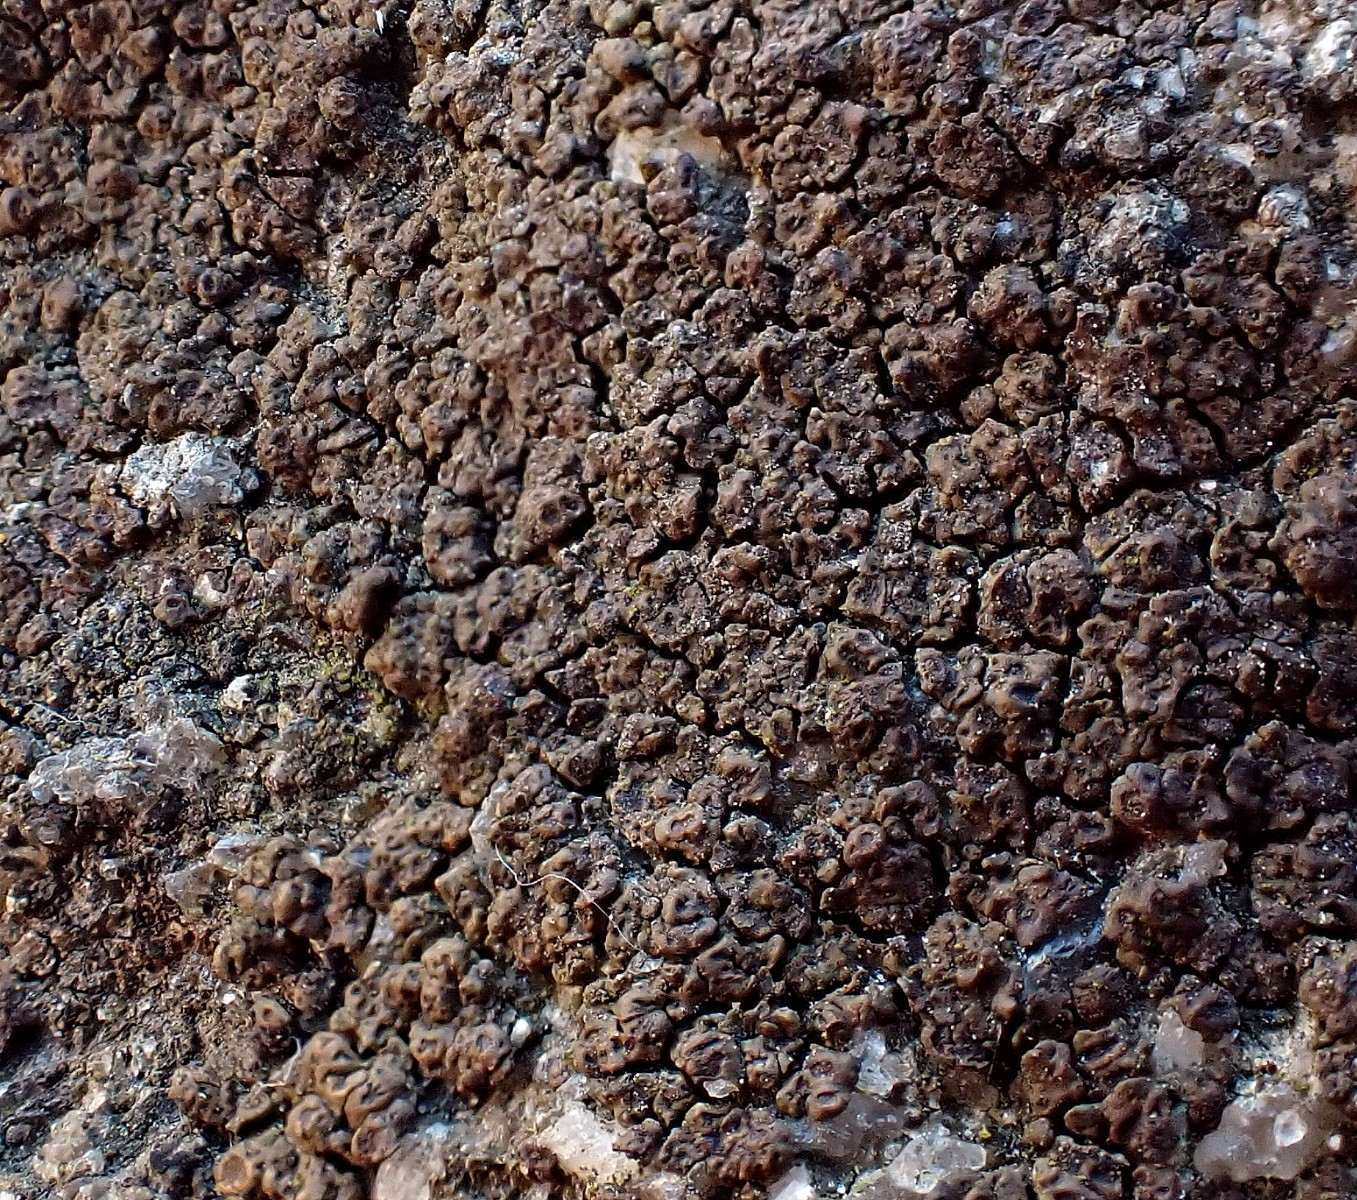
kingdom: Fungi
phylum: Ascomycota
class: Lecanoromycetes
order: Acarosporales
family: Acarosporaceae
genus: Acarospora
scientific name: Acarospora fuscata
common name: brun småsporelav
